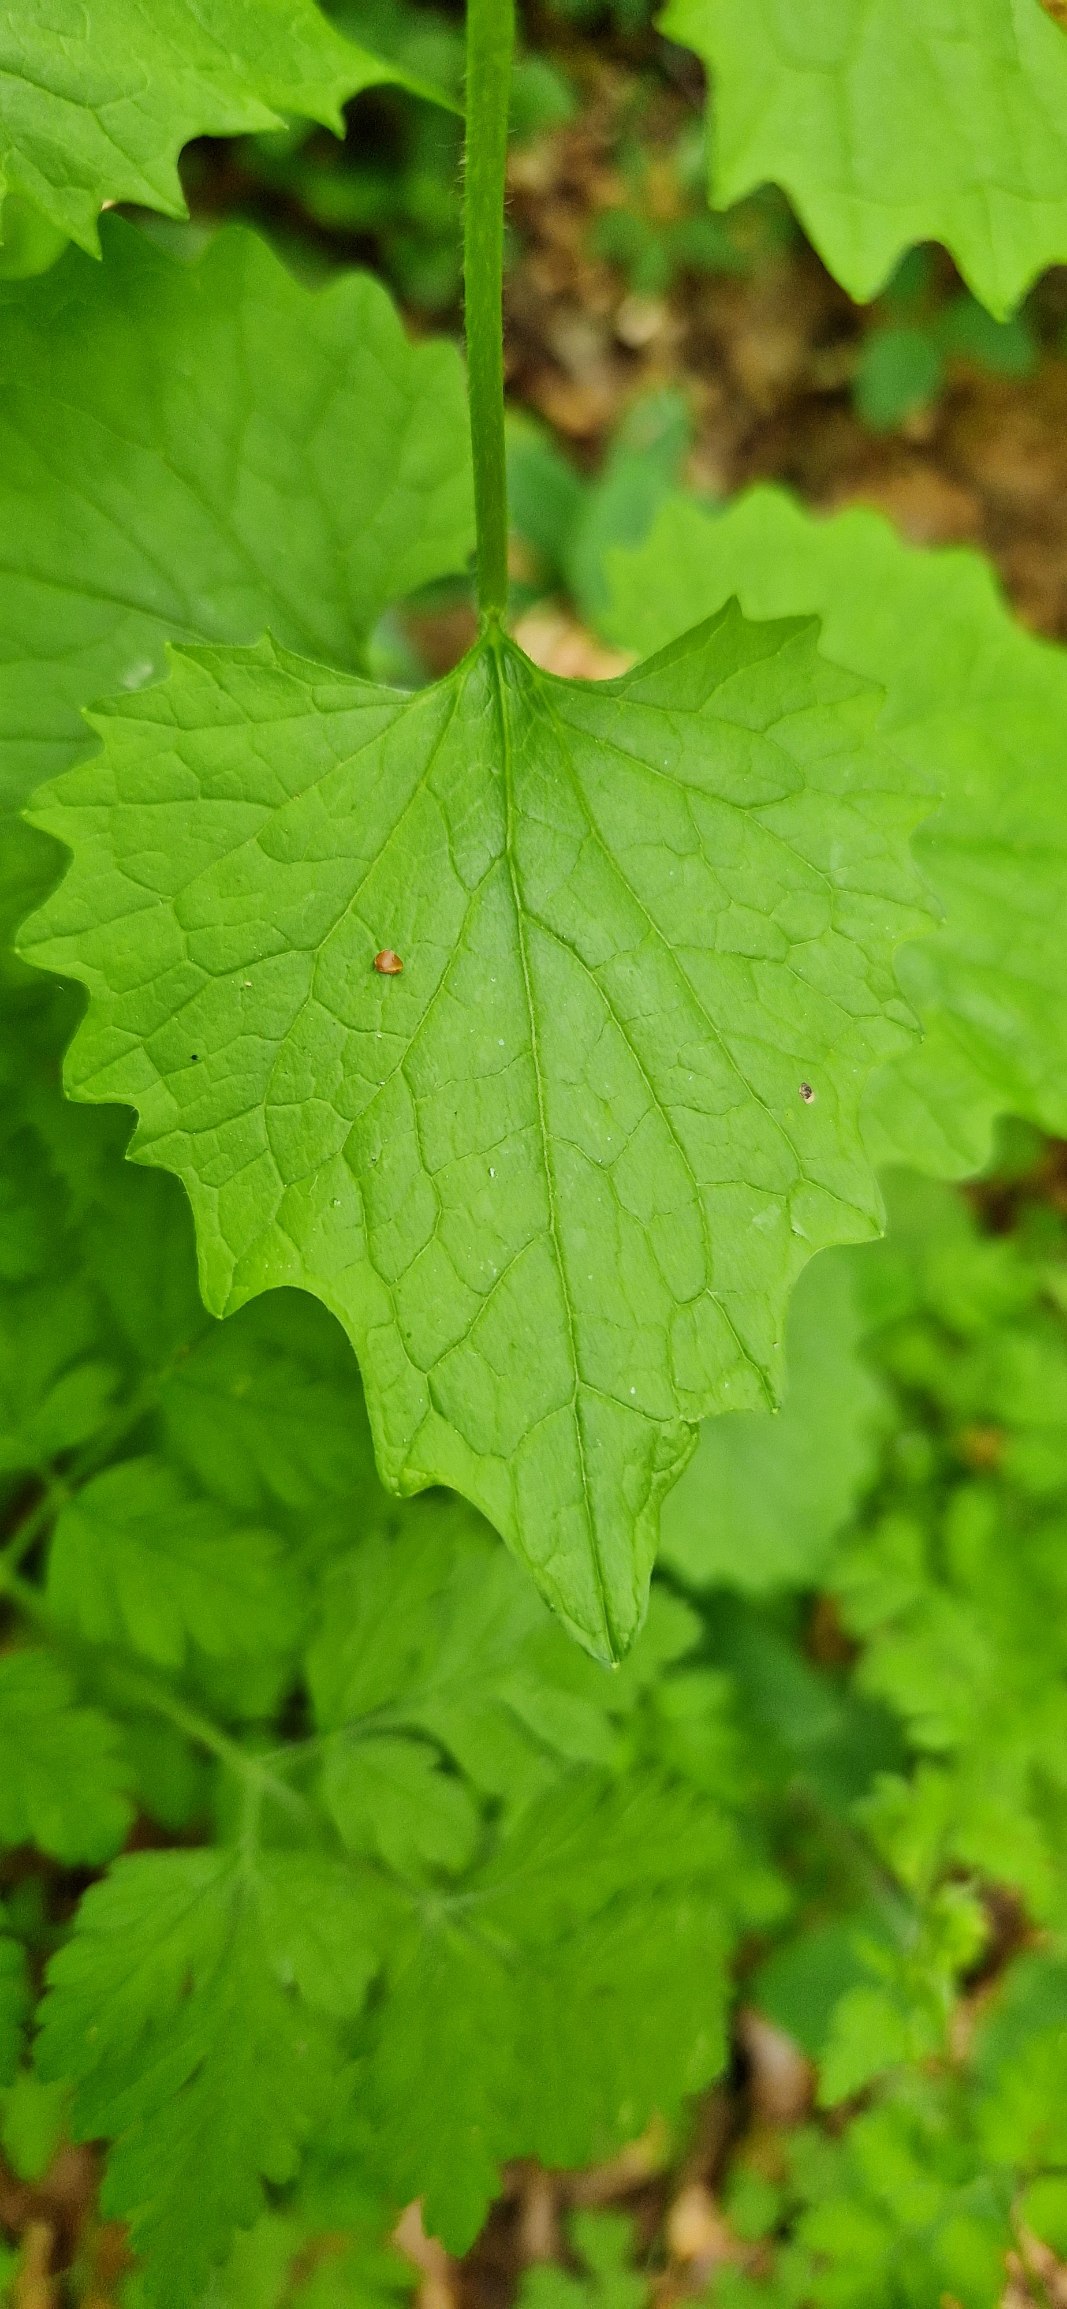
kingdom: Plantae
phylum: Tracheophyta
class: Magnoliopsida
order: Brassicales
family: Brassicaceae
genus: Alliaria
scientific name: Alliaria petiolata
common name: Løgkarse
